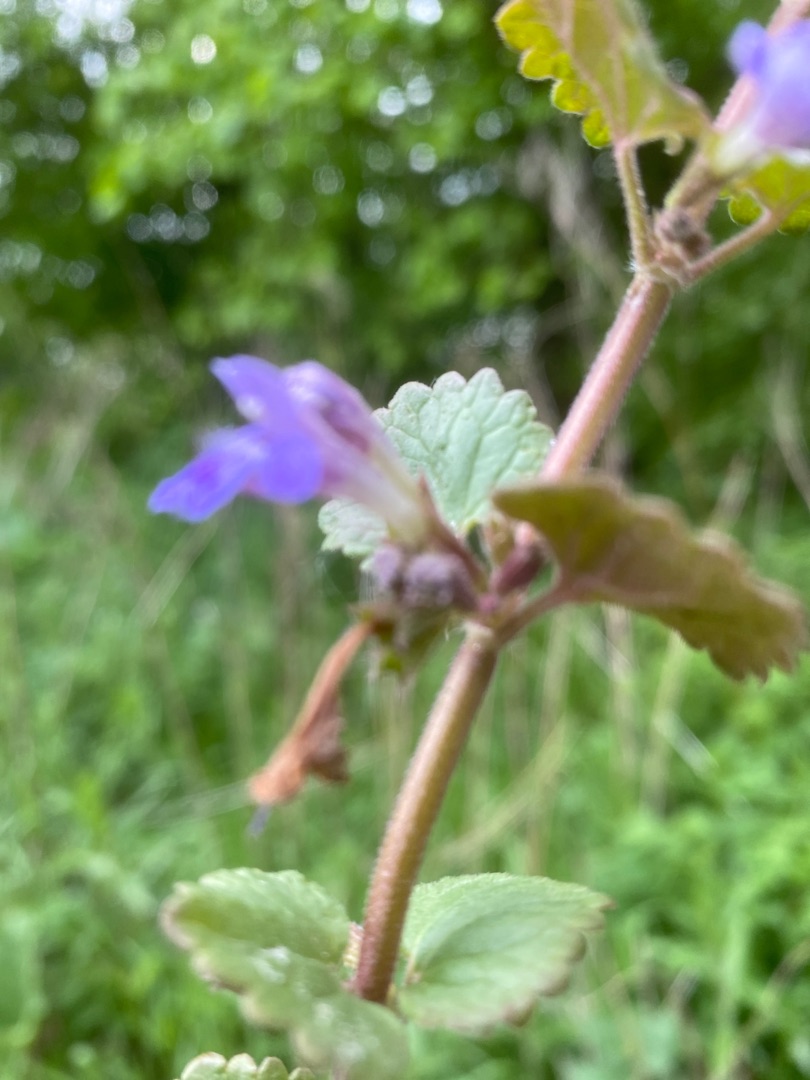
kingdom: Plantae
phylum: Tracheophyta
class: Magnoliopsida
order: Lamiales
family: Lamiaceae
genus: Glechoma
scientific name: Glechoma hederacea
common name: Korsknap
